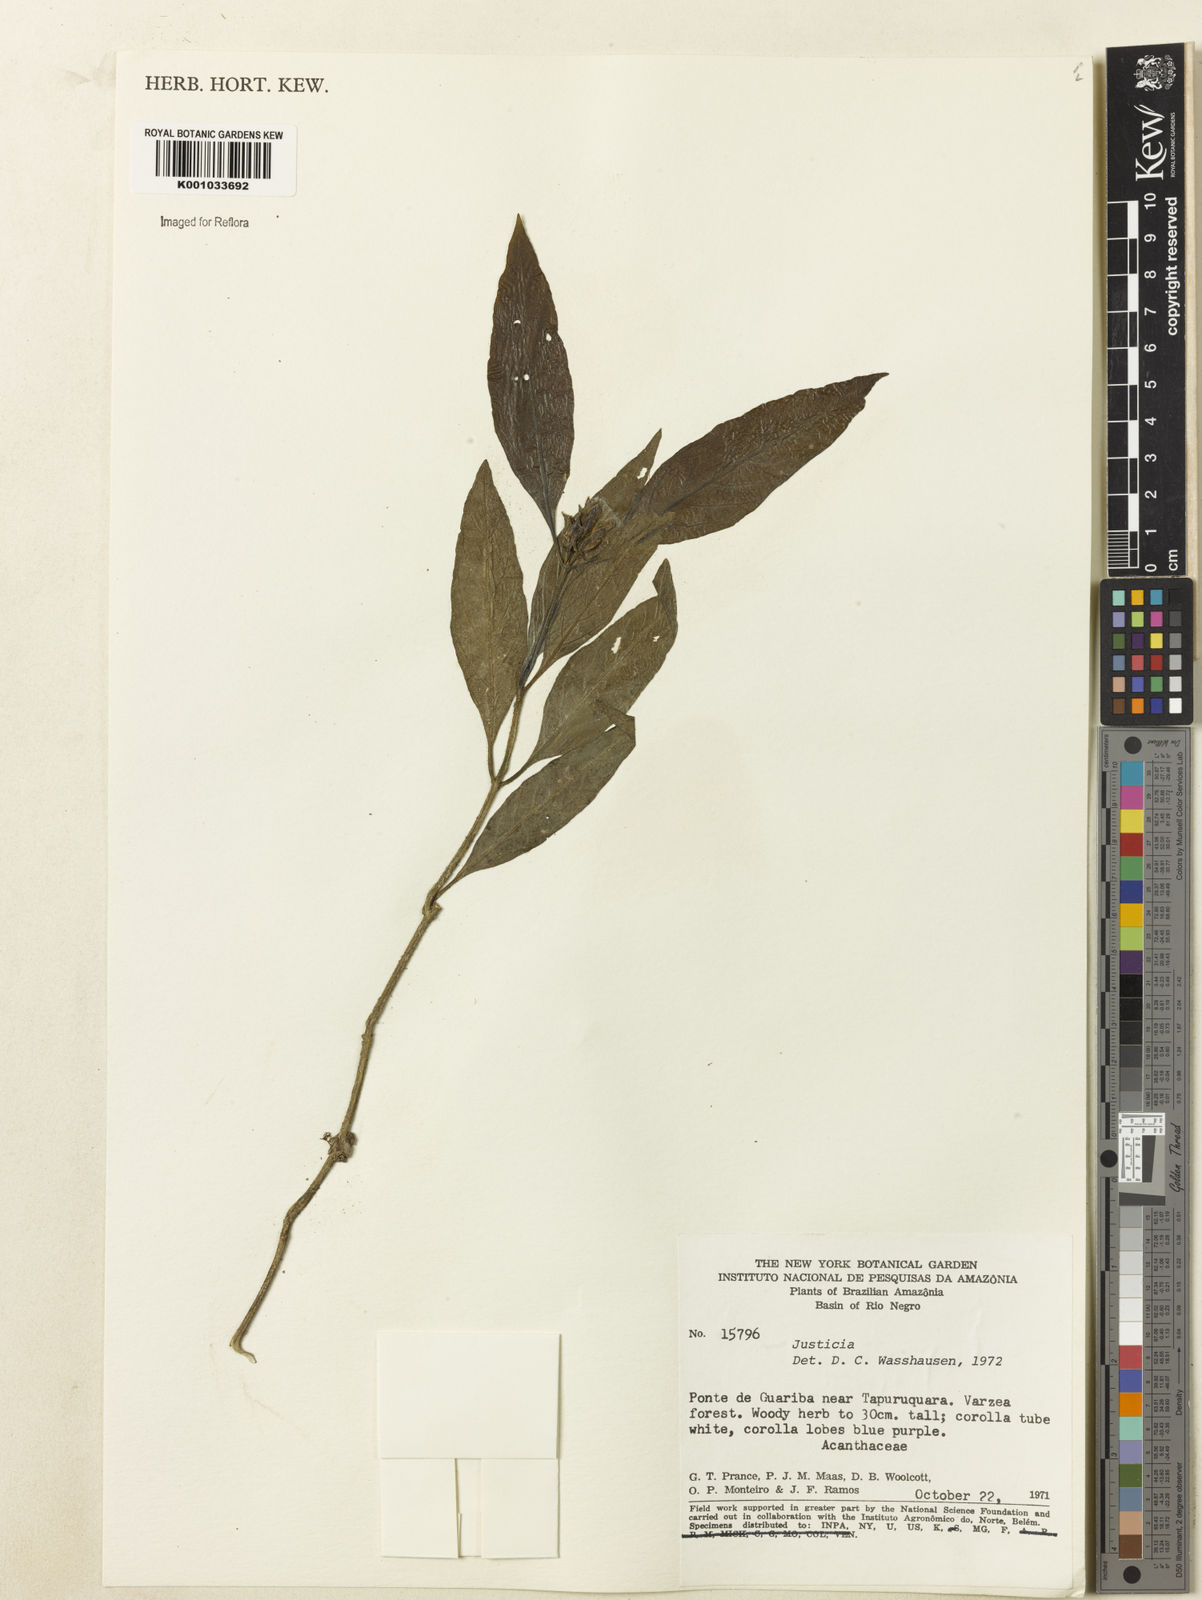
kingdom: Plantae
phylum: Tracheophyta
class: Magnoliopsida
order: Lamiales
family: Acanthaceae
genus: Justicia
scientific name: Justicia
